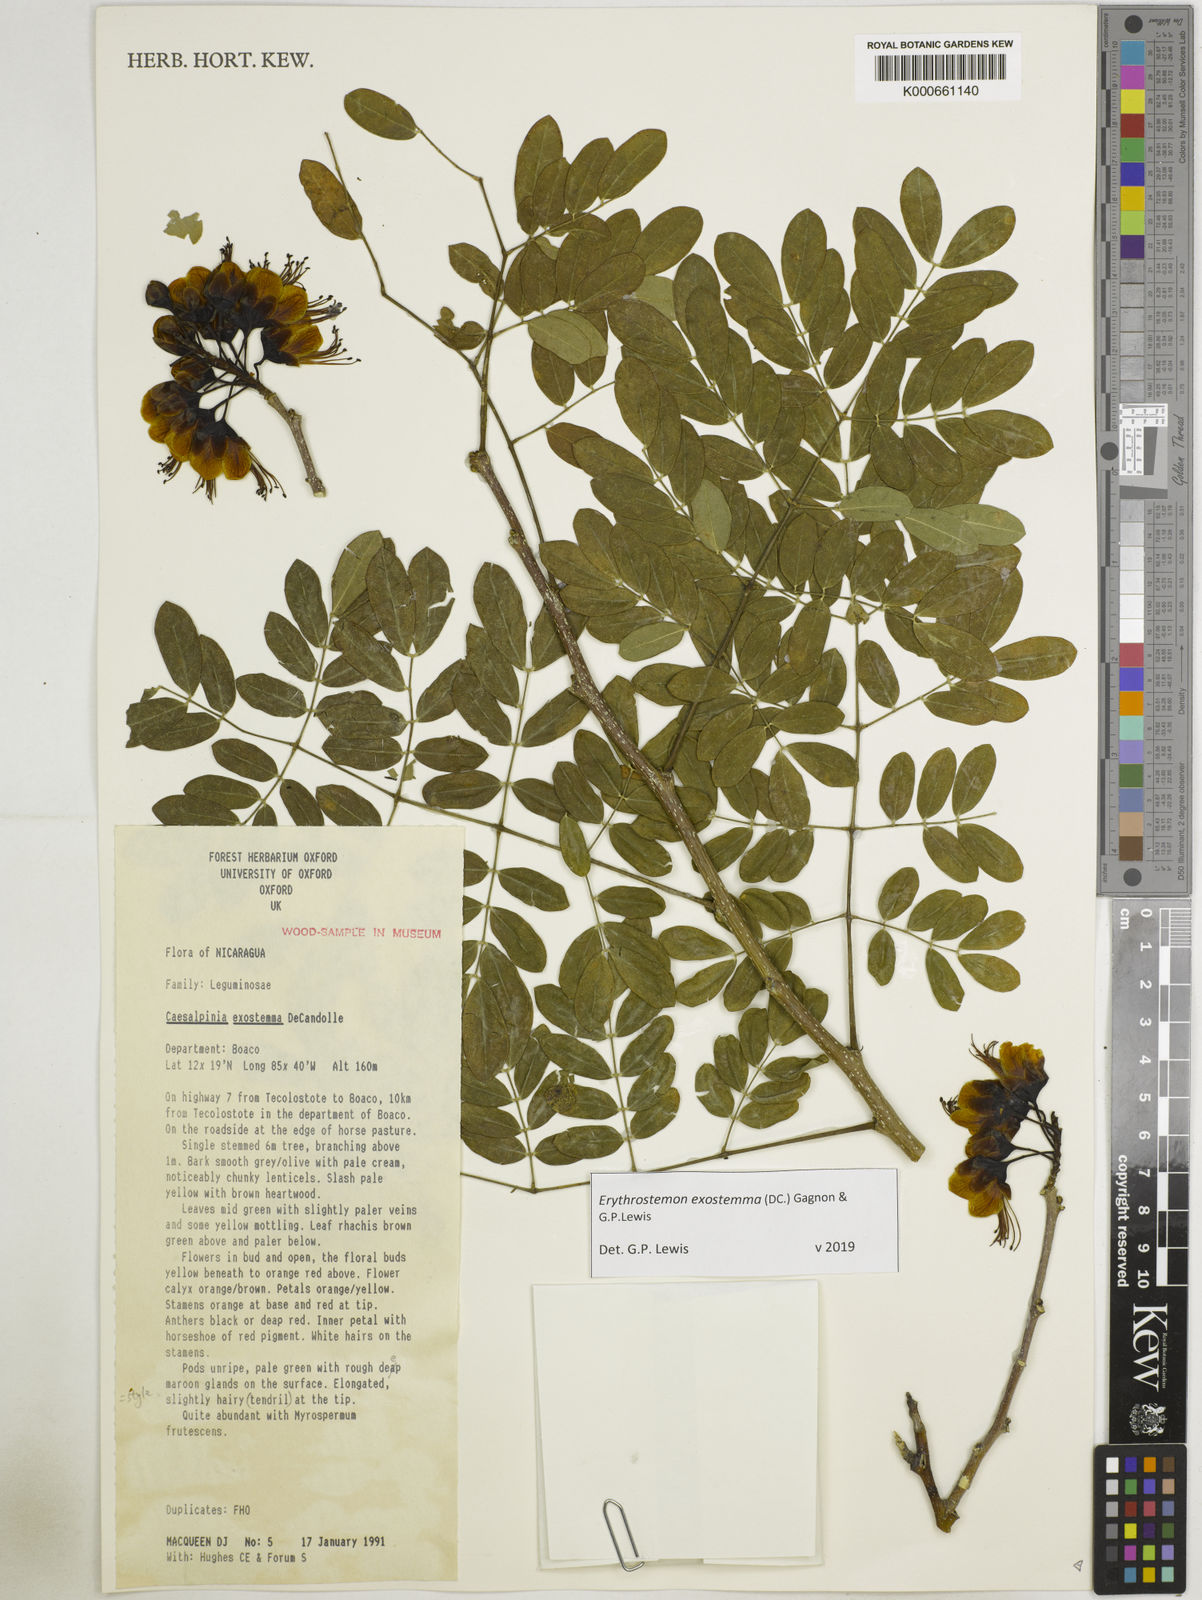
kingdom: Plantae
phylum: Tracheophyta
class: Magnoliopsida
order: Fabales
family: Fabaceae
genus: Erythrostemon
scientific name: Erythrostemon exostemma
